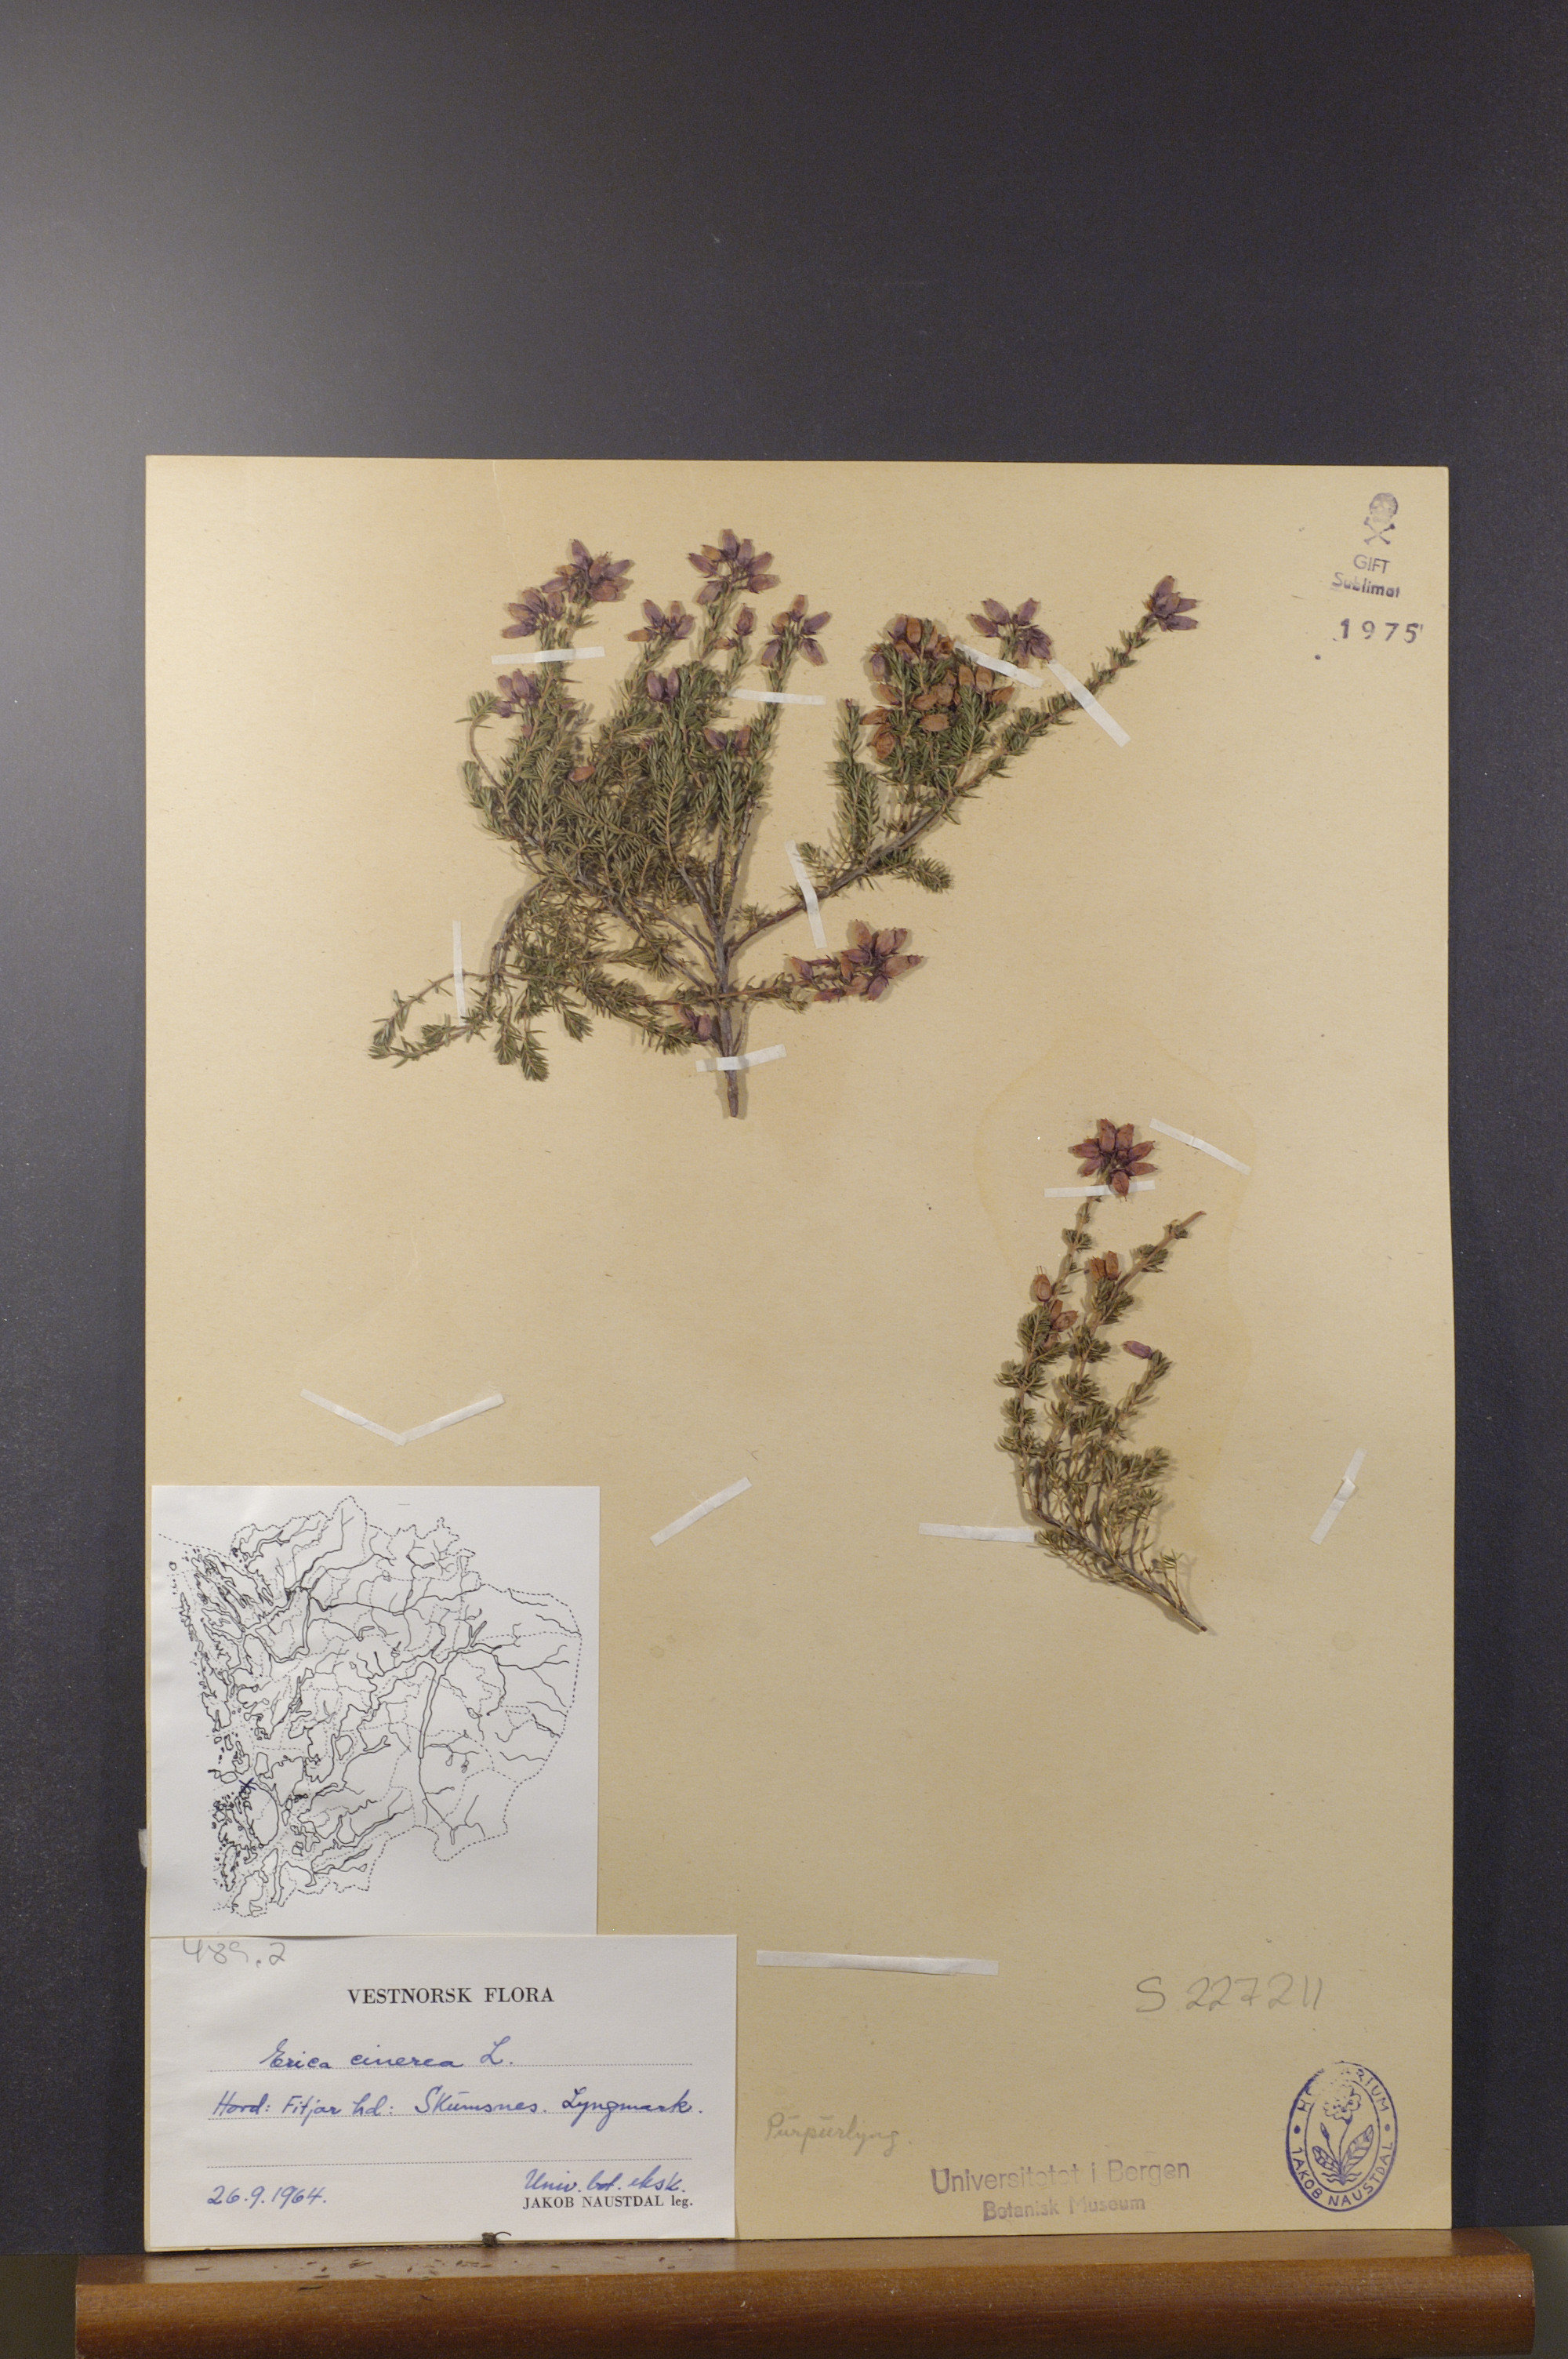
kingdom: Plantae
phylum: Tracheophyta
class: Magnoliopsida
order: Ericales
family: Ericaceae
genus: Erica
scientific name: Erica cinerea
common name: Bell heather
